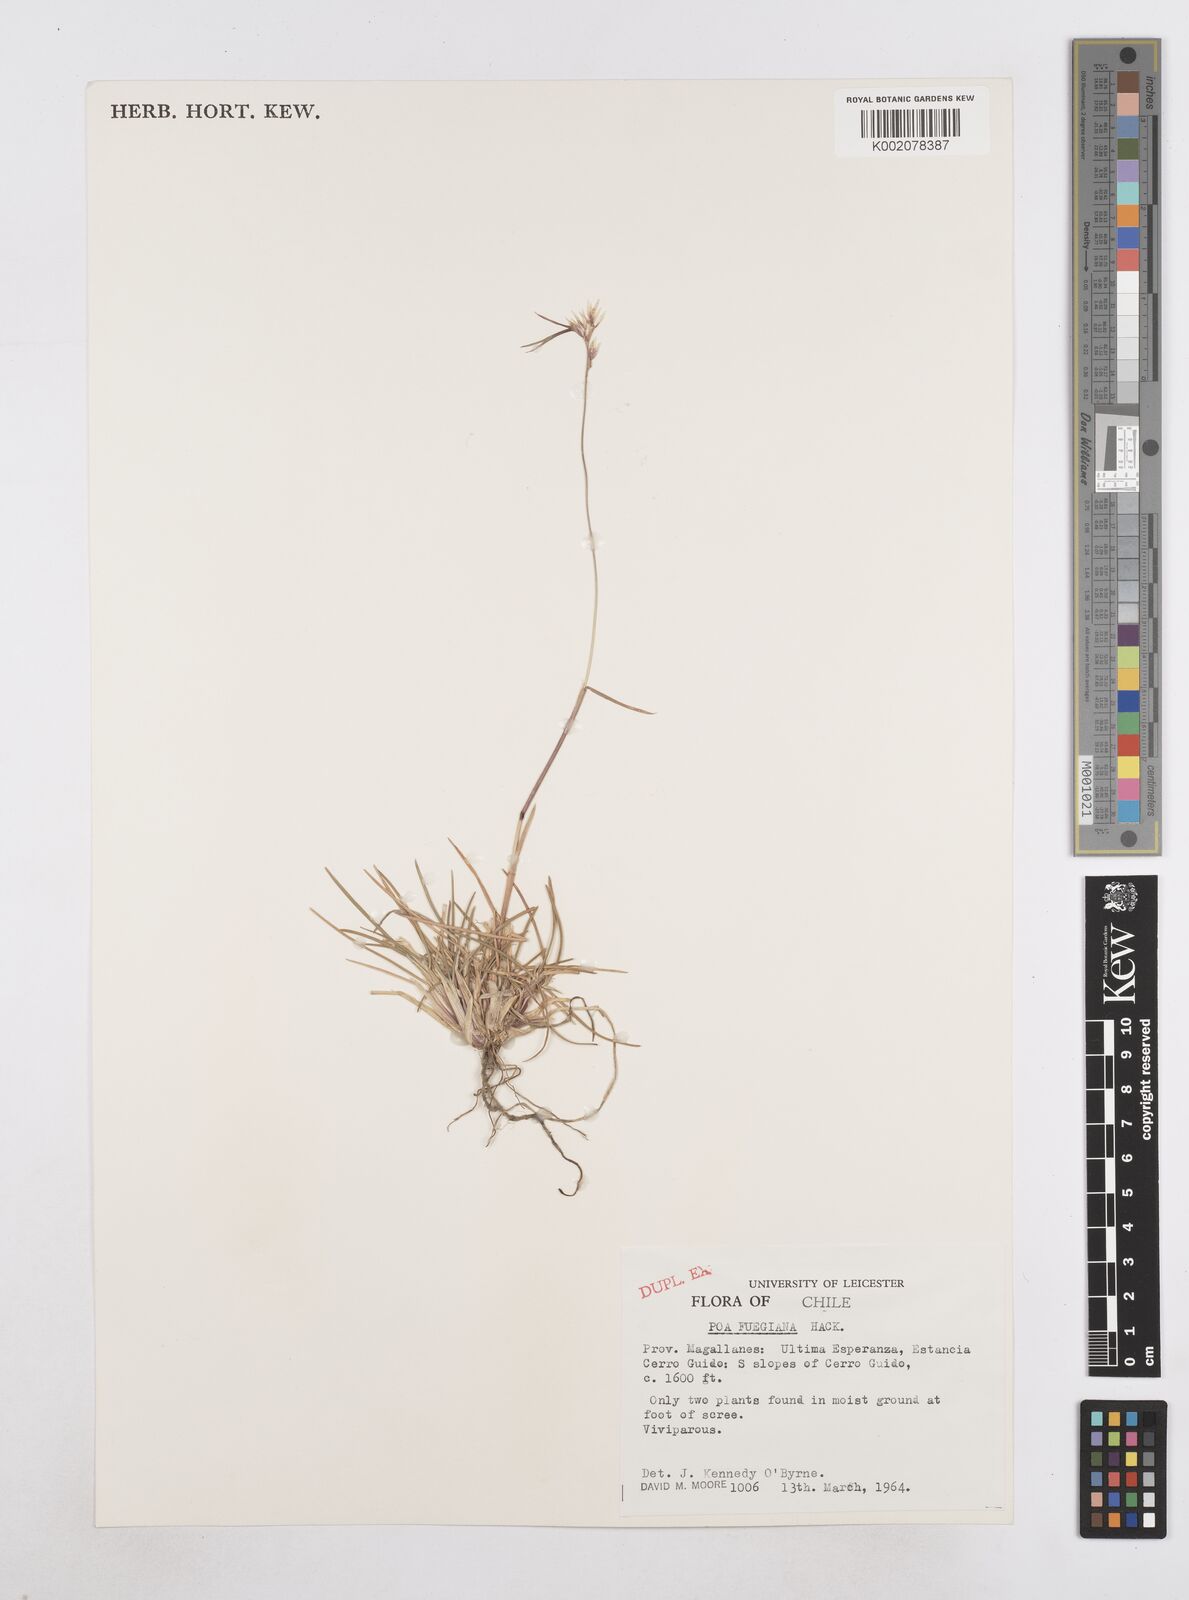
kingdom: Plantae
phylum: Tracheophyta
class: Liliopsida
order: Poales
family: Poaceae
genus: Poa
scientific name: Poa alopecurus
